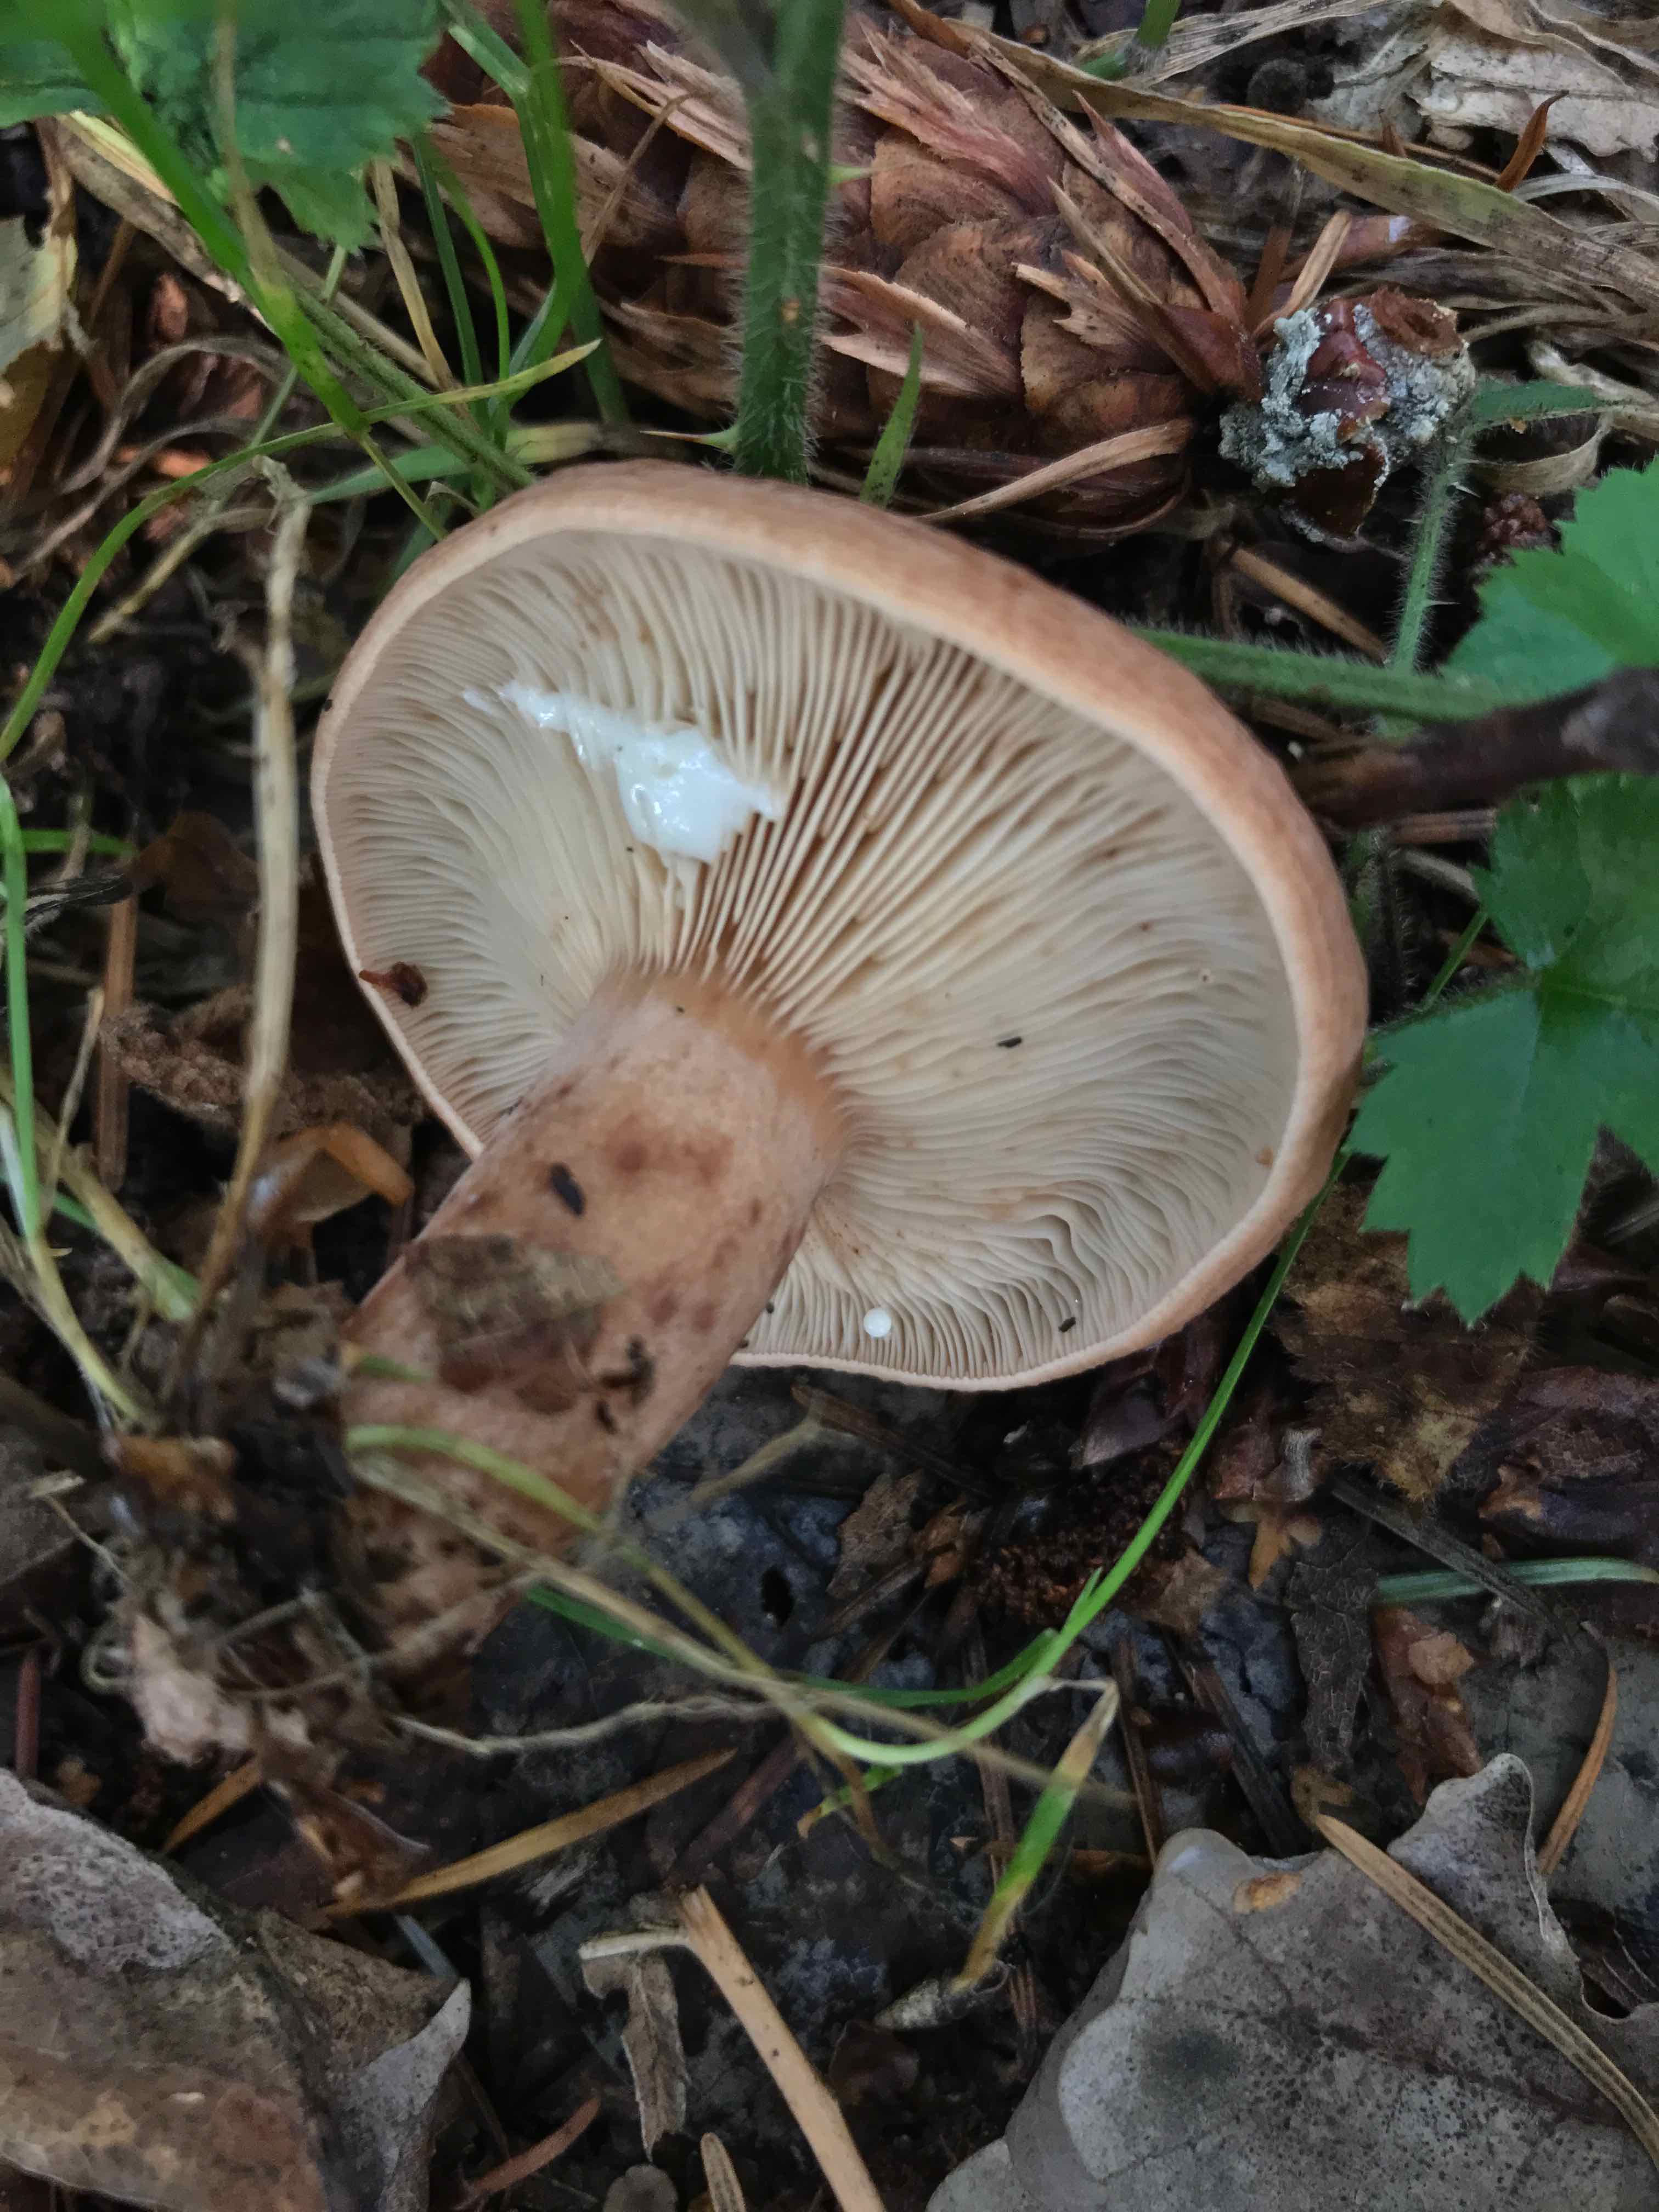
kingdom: Fungi
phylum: Basidiomycota
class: Agaricomycetes
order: Russulales
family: Russulaceae
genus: Lactarius
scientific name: Lactarius quietus
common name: ege-mælkehat
